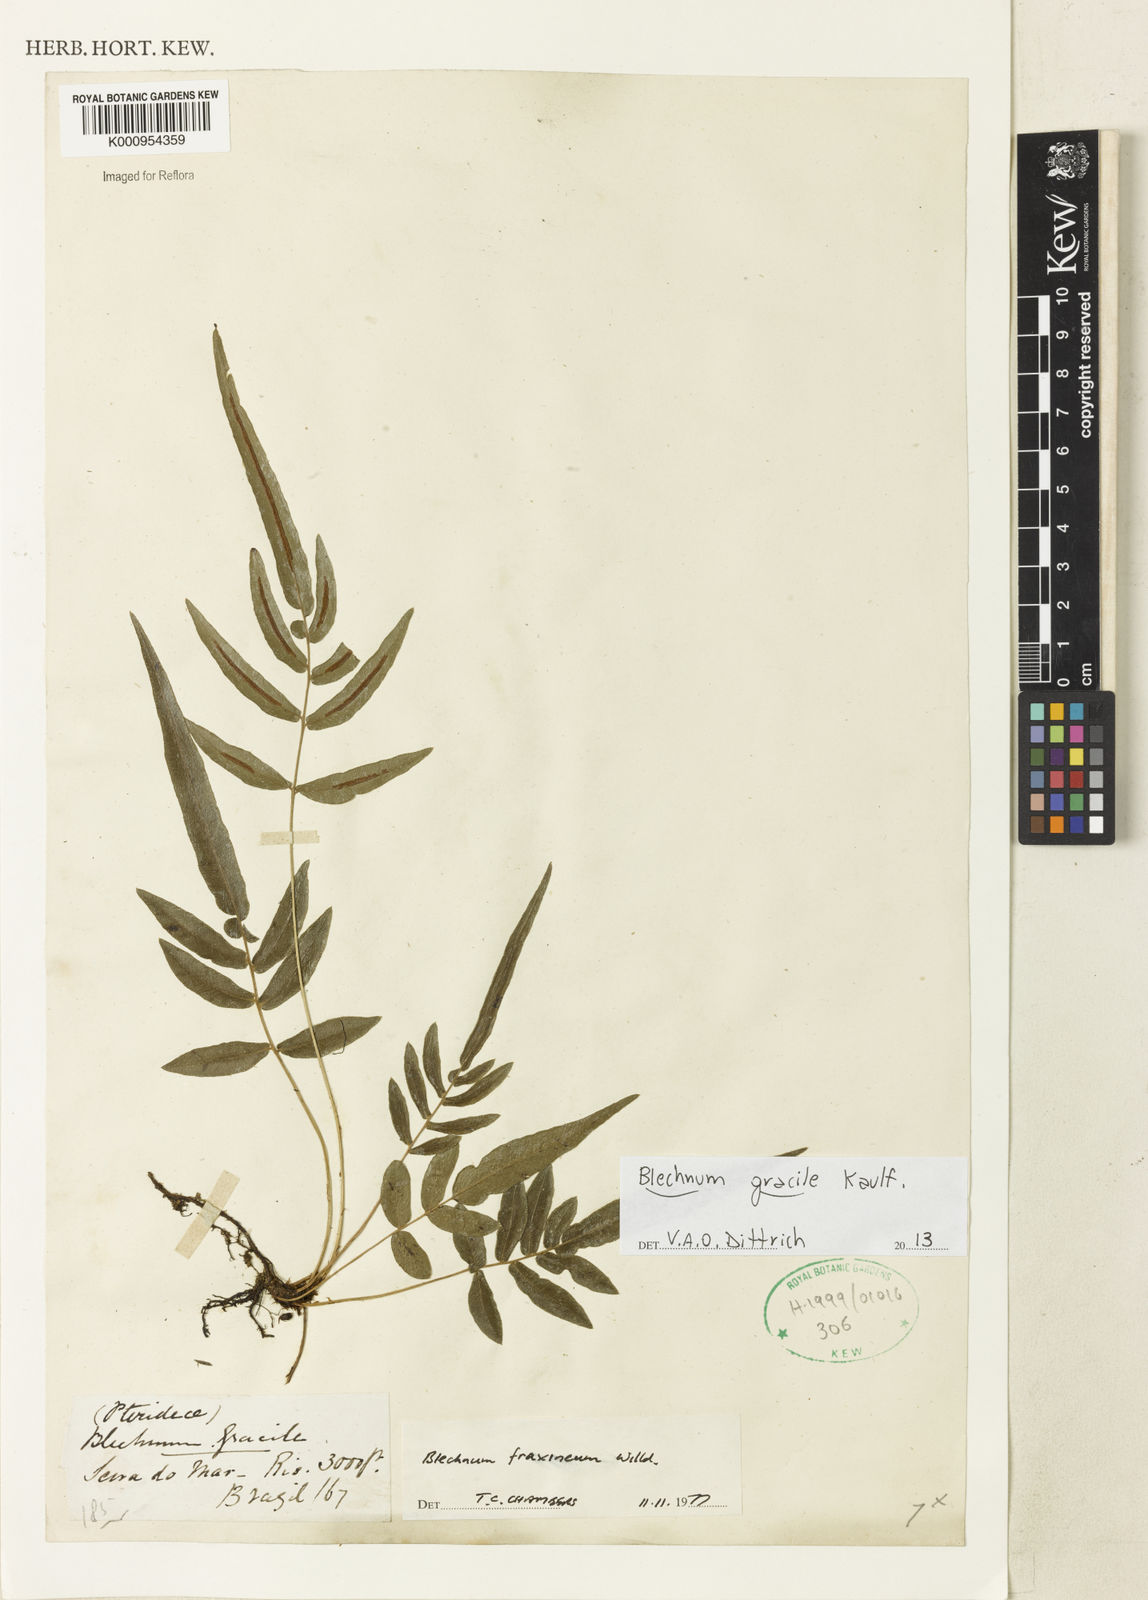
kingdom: Plantae
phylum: Tracheophyta
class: Polypodiopsida
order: Polypodiales
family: Blechnaceae
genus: Blechnum
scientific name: Blechnum gracile
